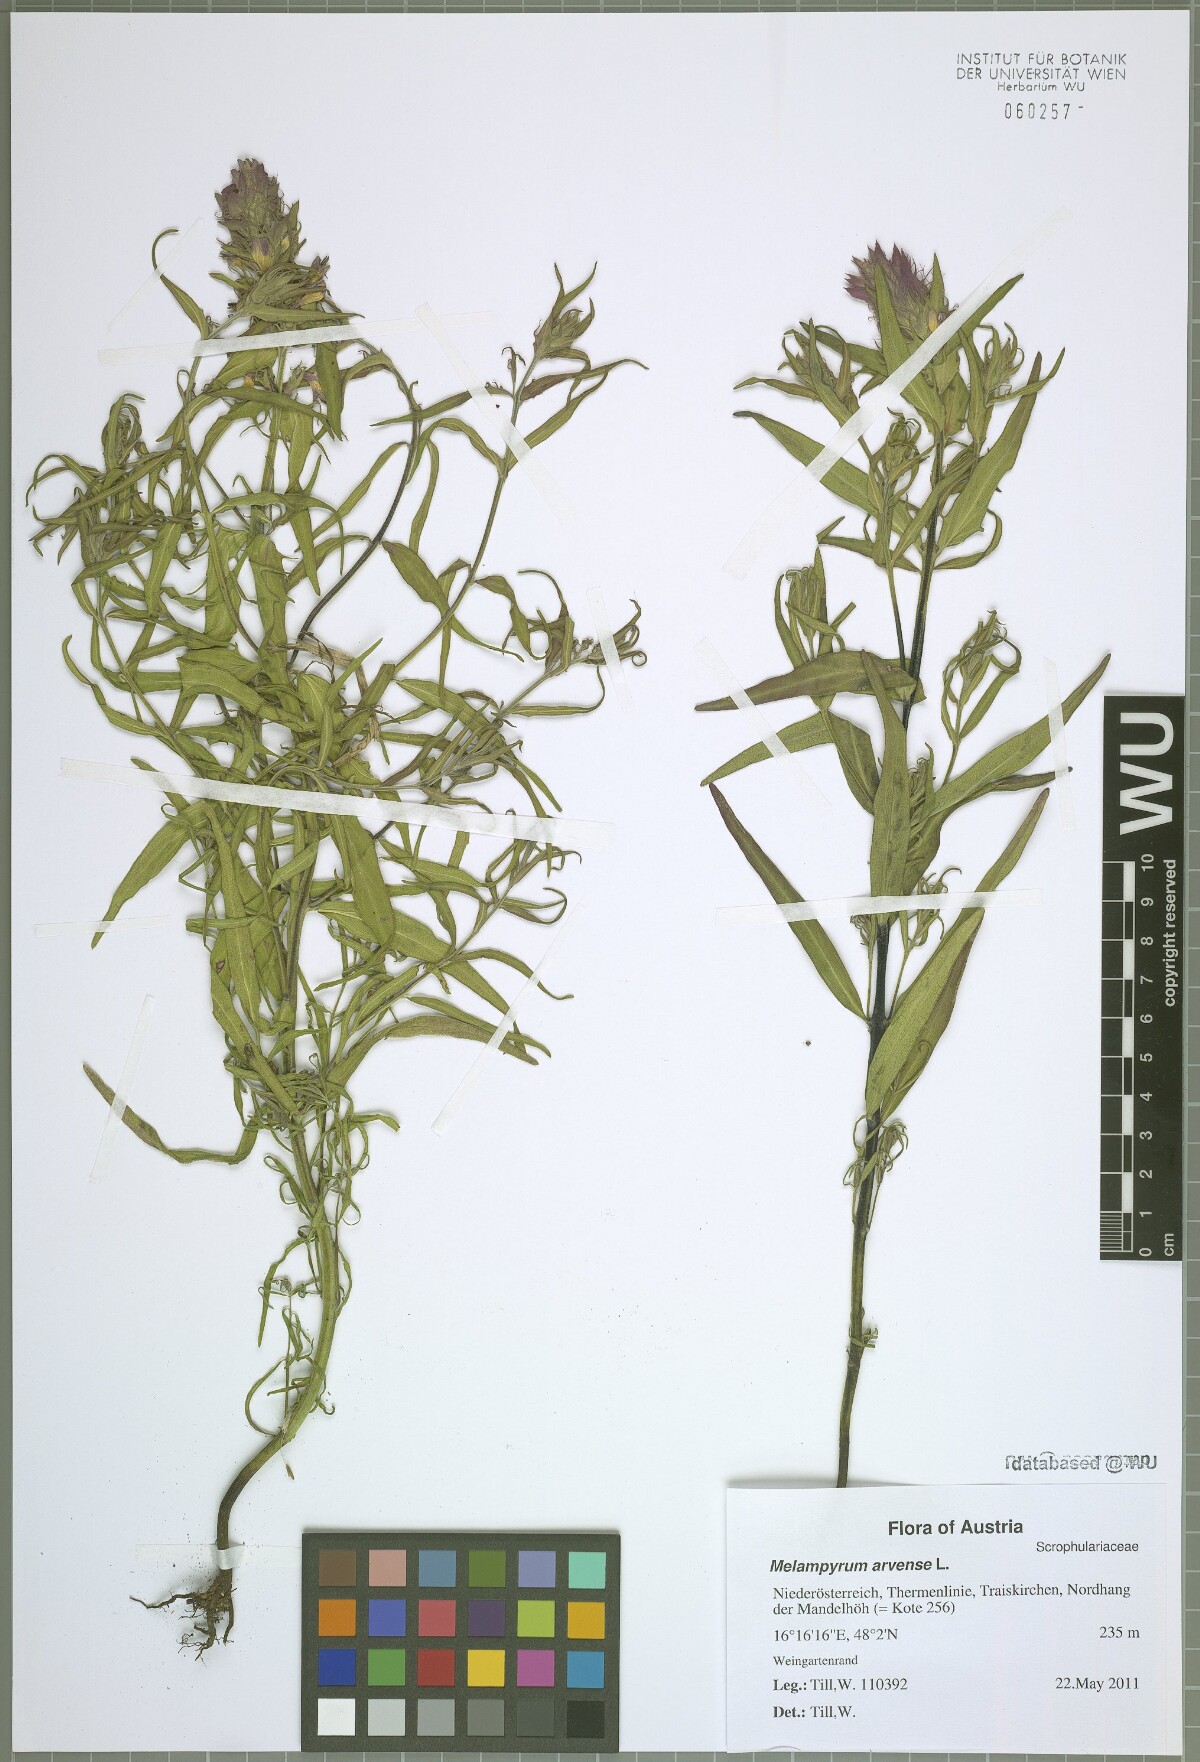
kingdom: Plantae
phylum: Tracheophyta
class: Magnoliopsida
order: Lamiales
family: Orobanchaceae
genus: Melampyrum
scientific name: Melampyrum arvense
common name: Field cow-wheat
